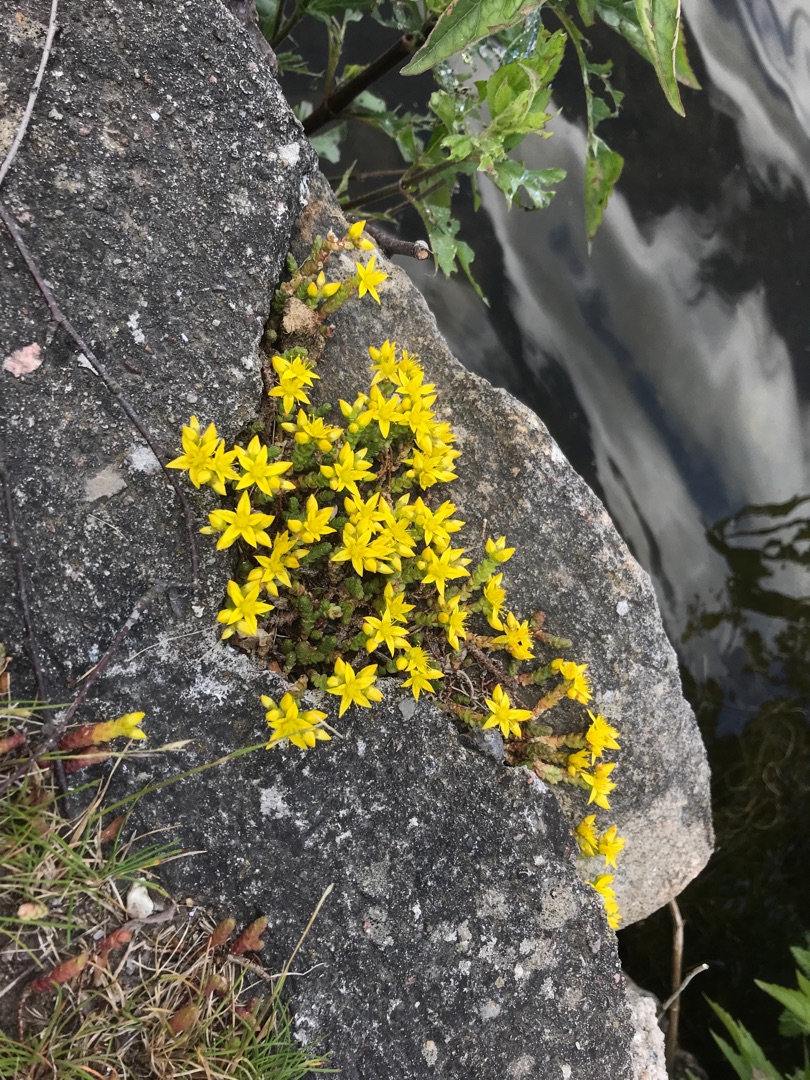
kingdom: Plantae
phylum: Tracheophyta
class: Magnoliopsida
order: Saxifragales
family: Crassulaceae
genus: Sedum
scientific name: Sedum acre
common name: Bidende stenurt
